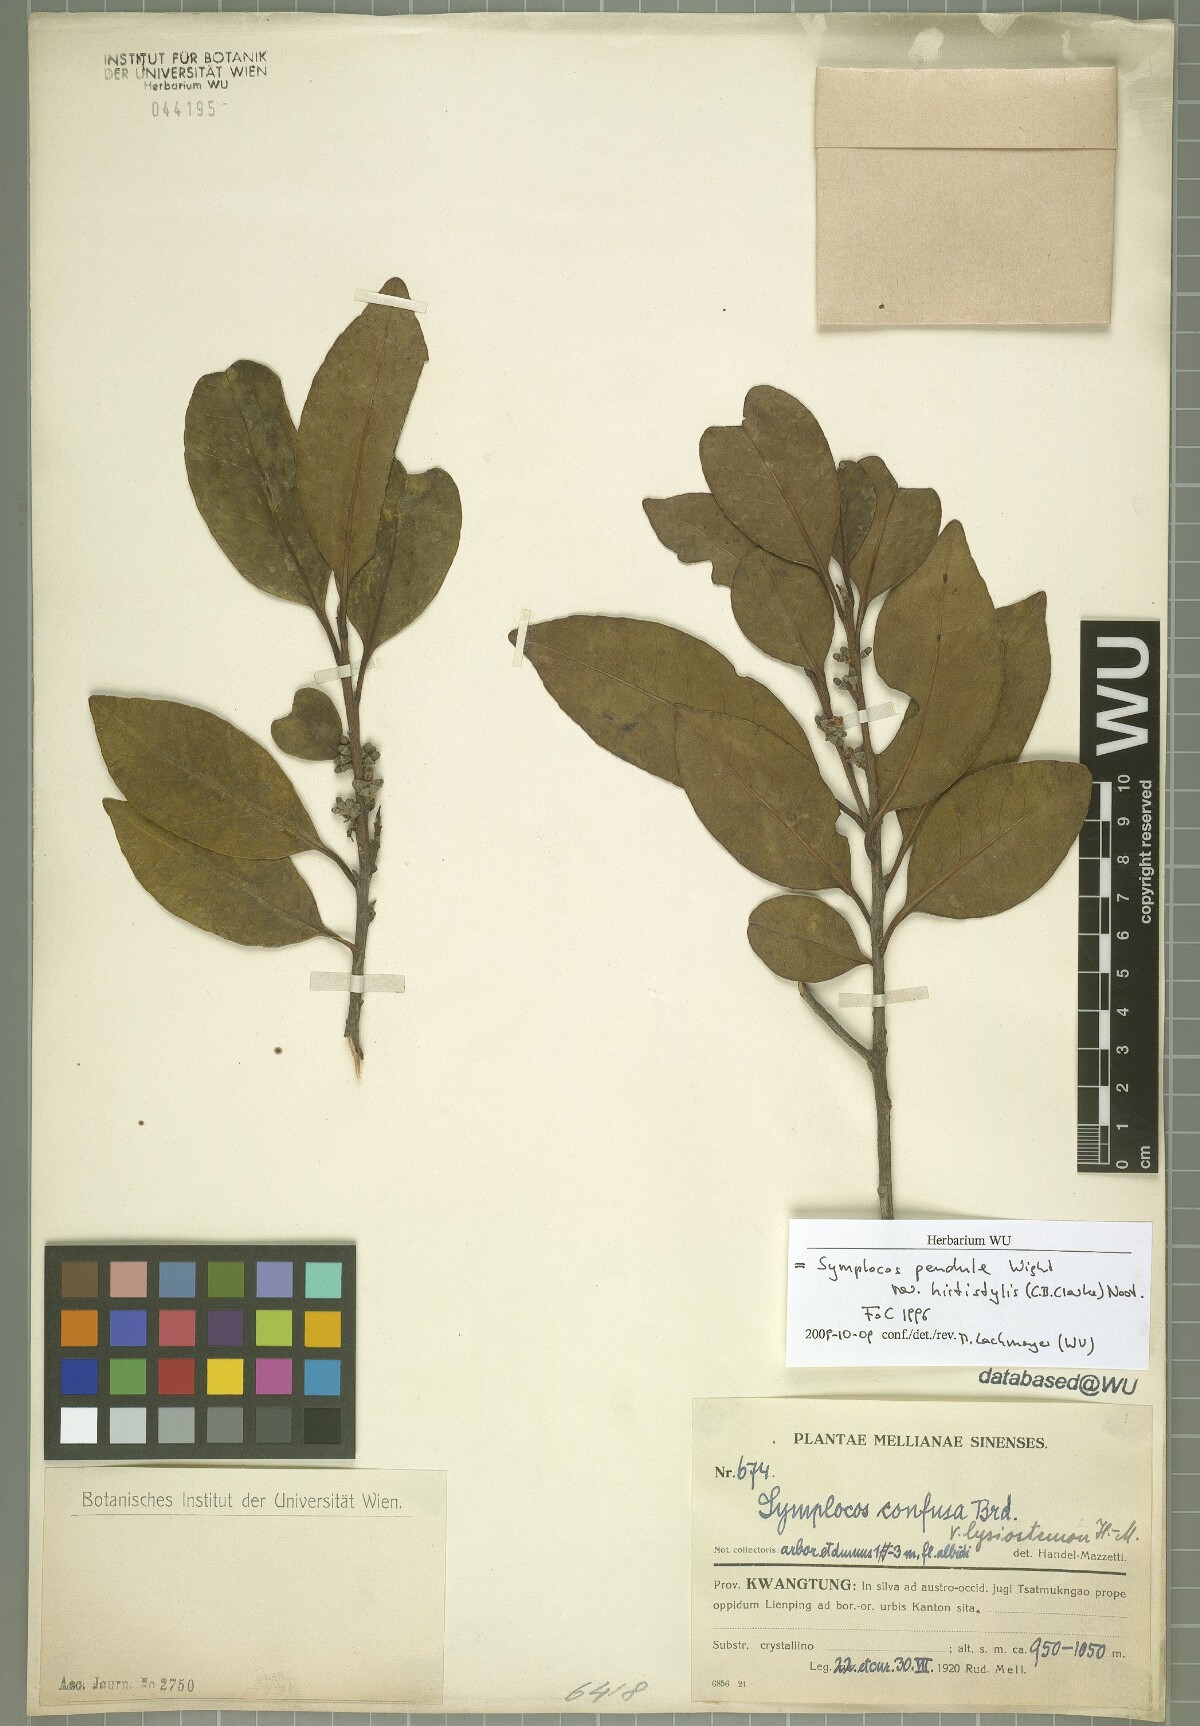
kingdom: Plantae
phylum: Tracheophyta
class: Magnoliopsida
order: Ericales
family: Symplocaceae
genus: Symplocos
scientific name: Symplocos pendula
